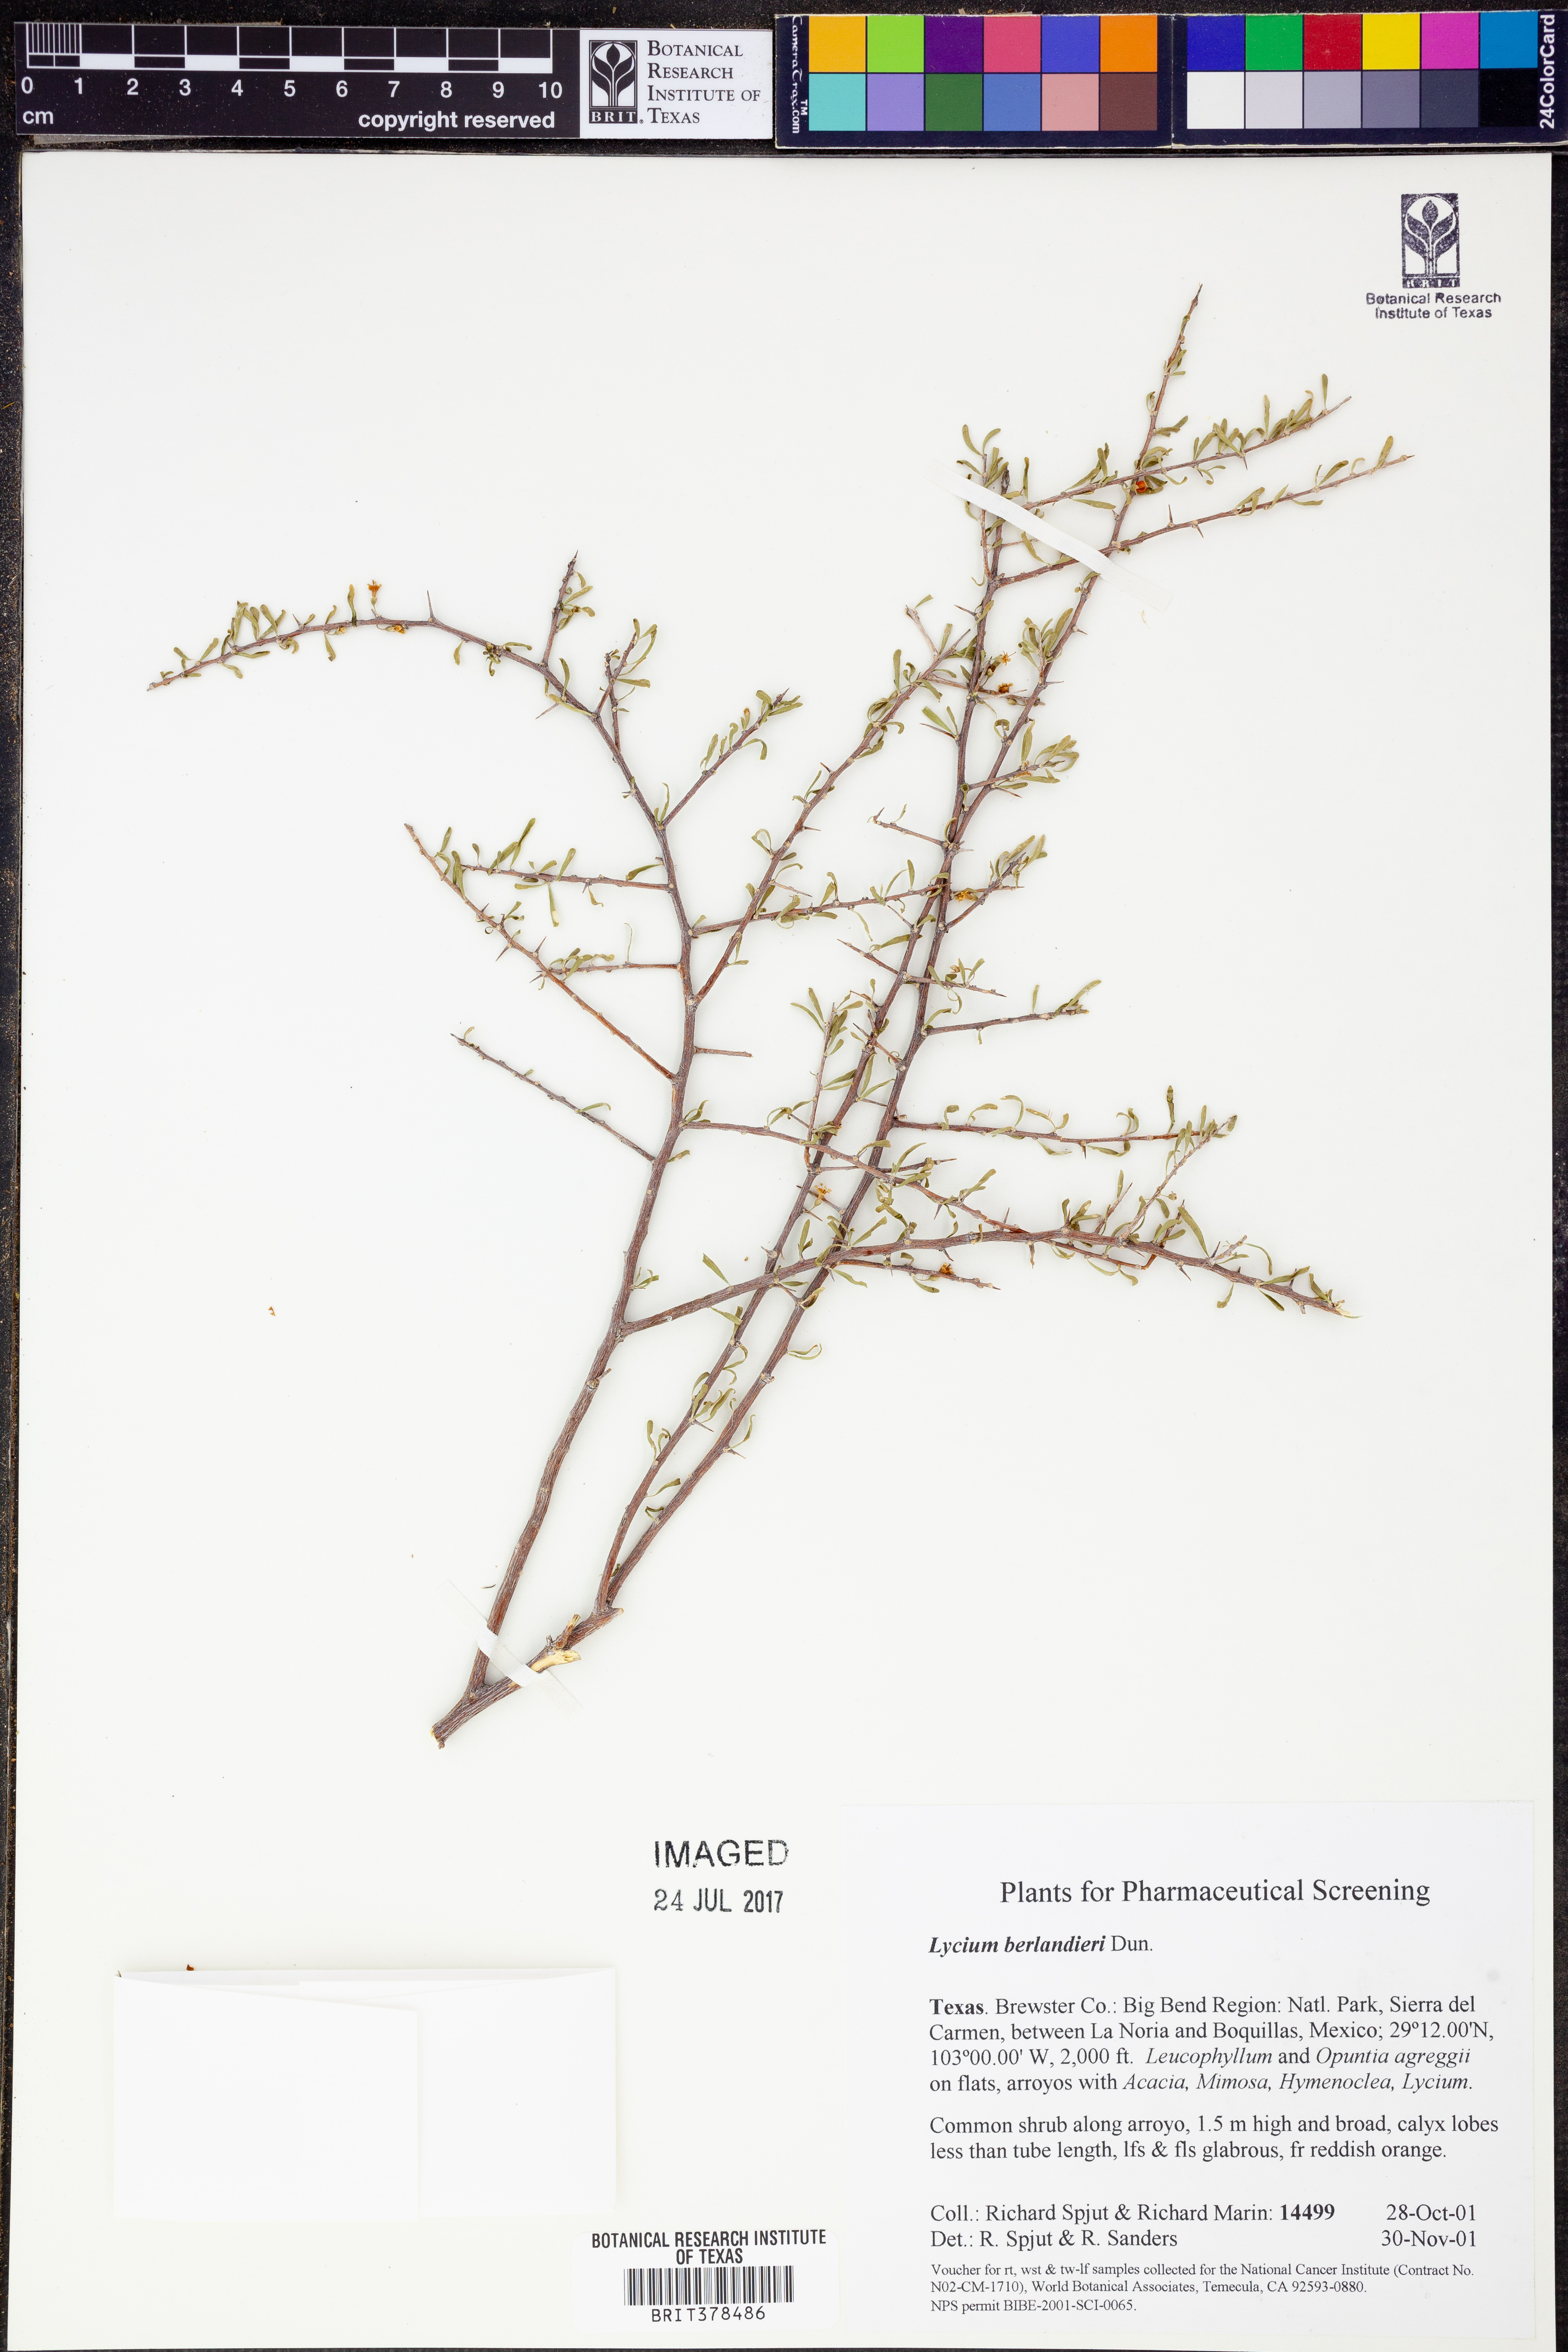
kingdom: Plantae
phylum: Tracheophyta
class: Magnoliopsida
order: Solanales
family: Solanaceae
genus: Lycium
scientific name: Lycium berlandieri
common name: Berlandier wolfberry
